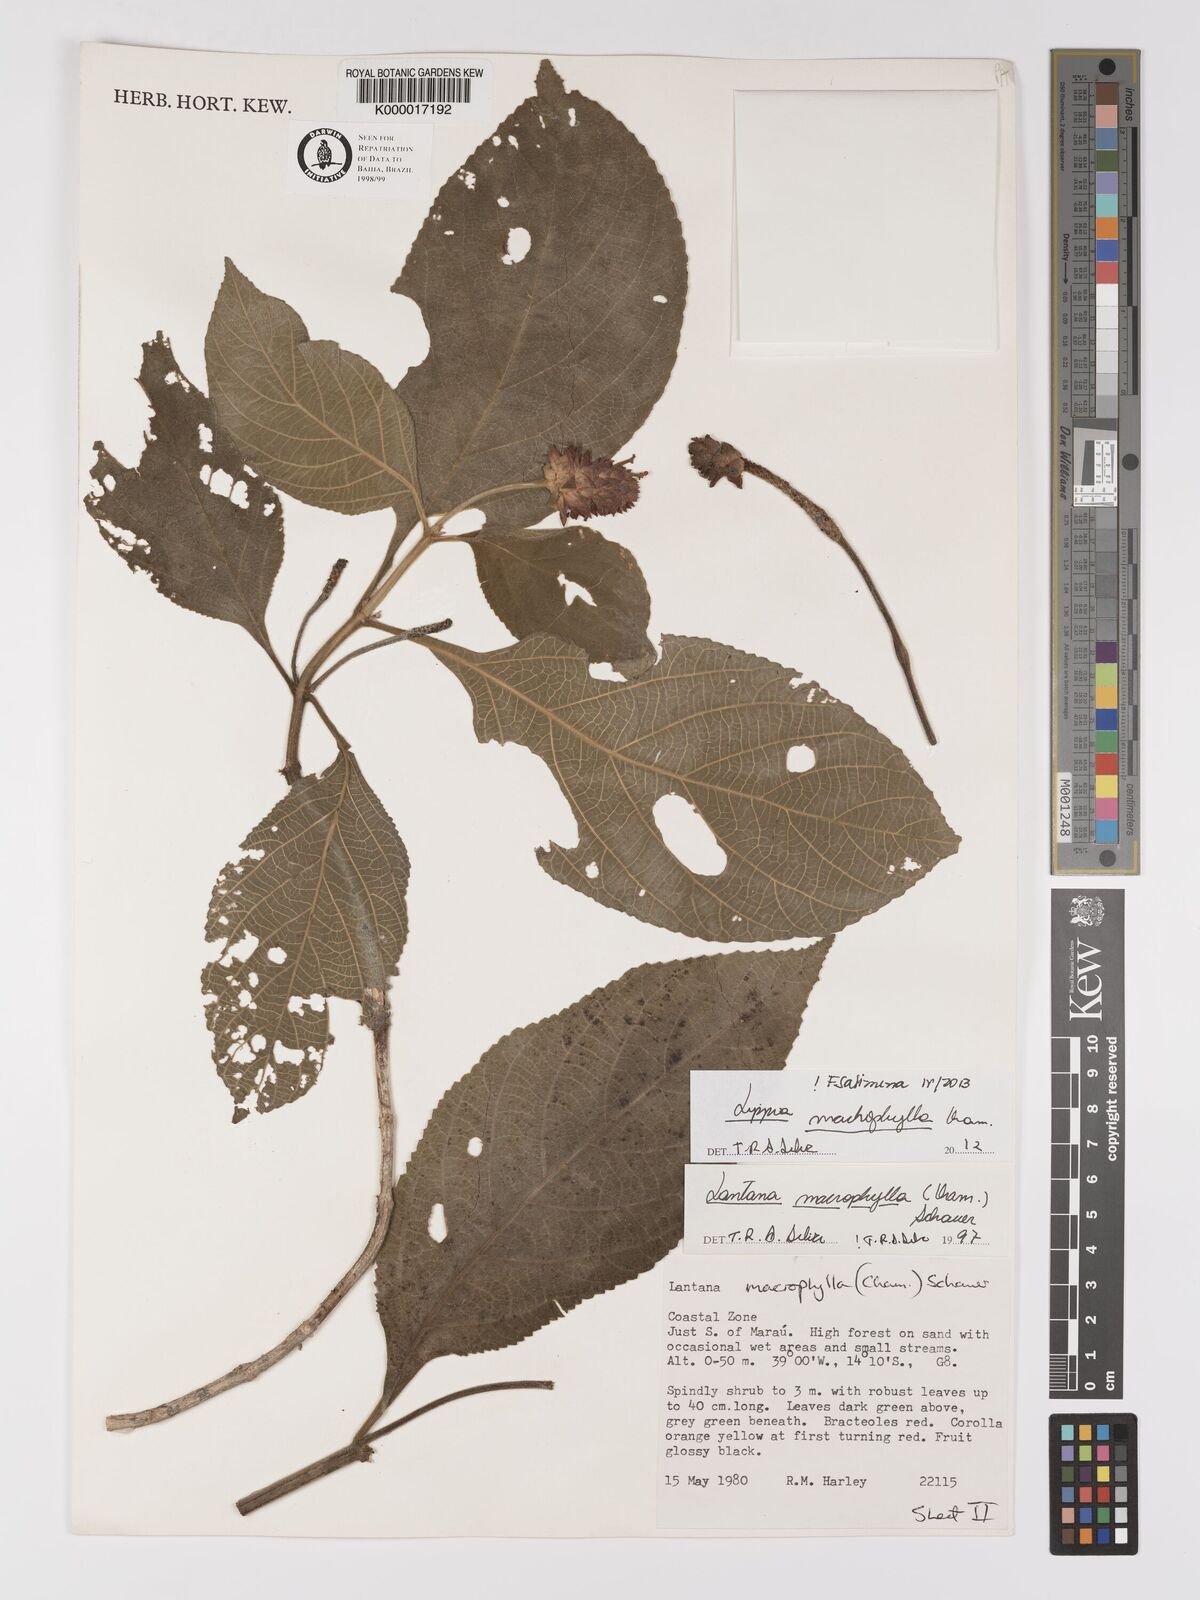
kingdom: Plantae
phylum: Tracheophyta
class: Magnoliopsida
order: Lamiales
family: Verbenaceae
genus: Lippia
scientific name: Lippia macrophylla
